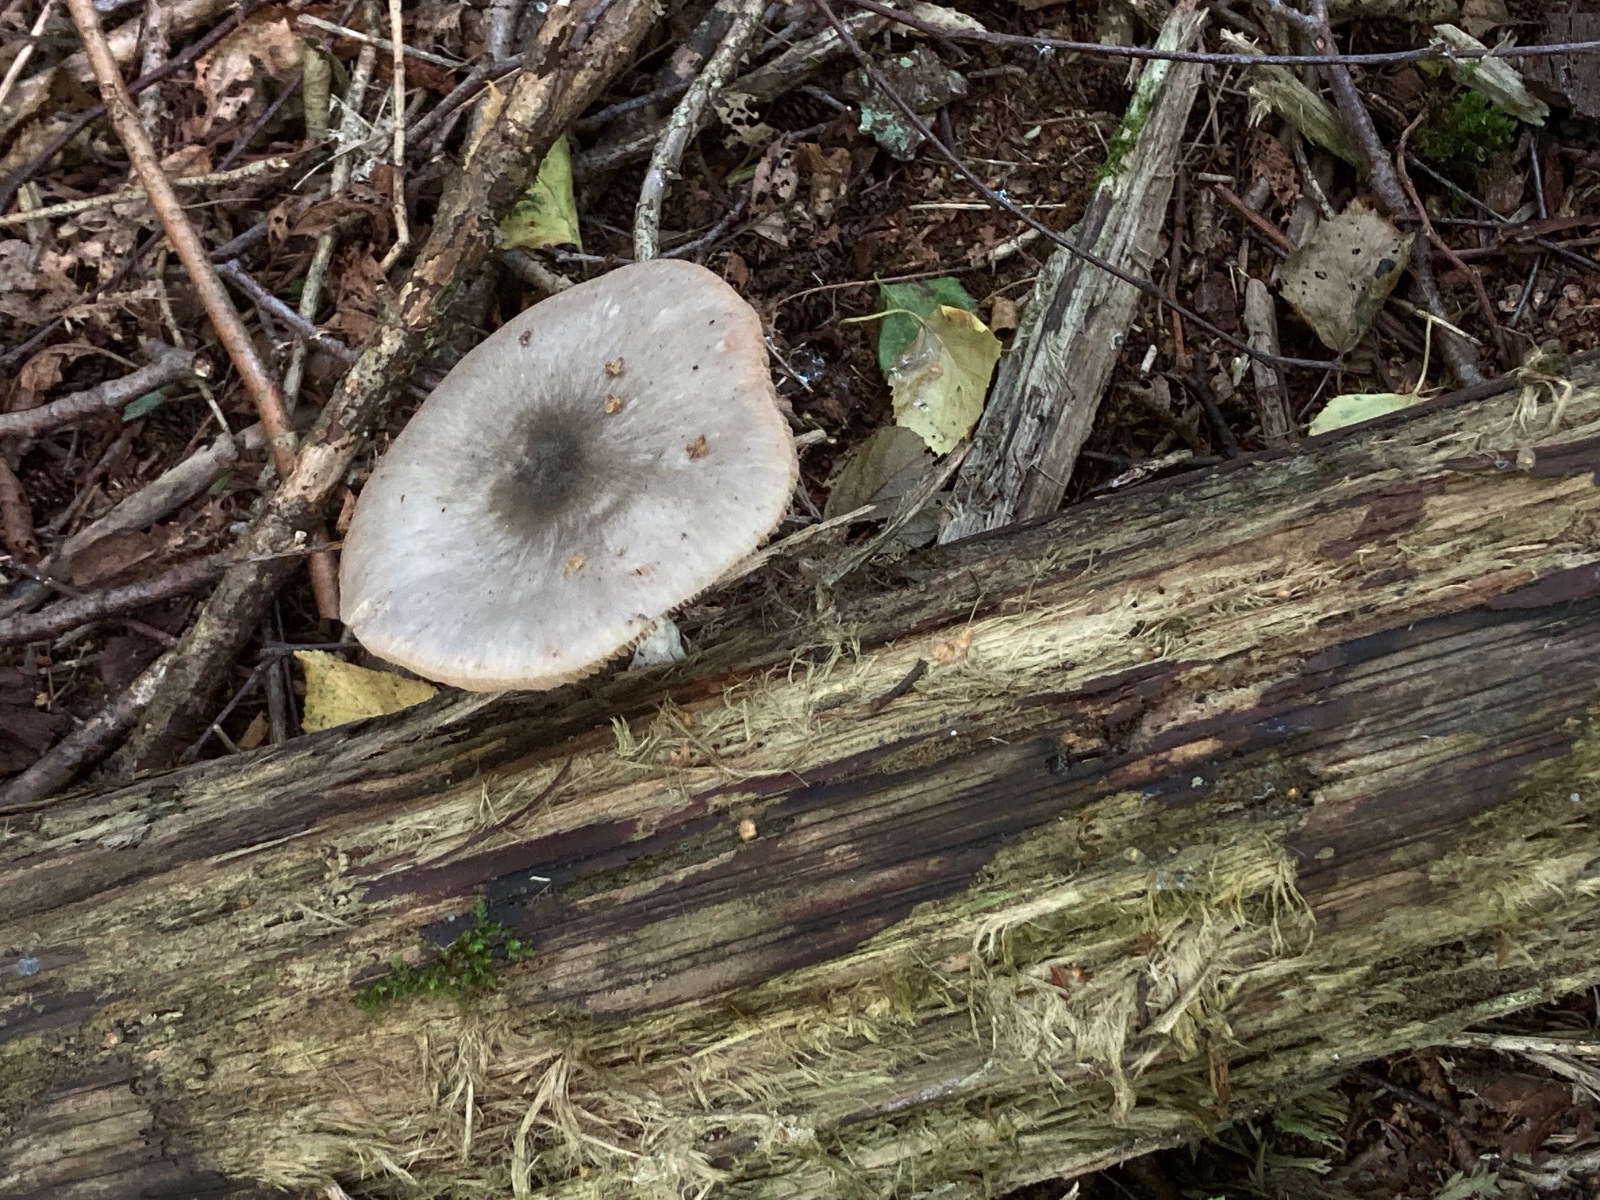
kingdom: Fungi
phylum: Basidiomycota
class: Agaricomycetes
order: Agaricales
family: Pluteaceae
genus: Pluteus
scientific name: Pluteus salicinus
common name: stiv skærmhat
